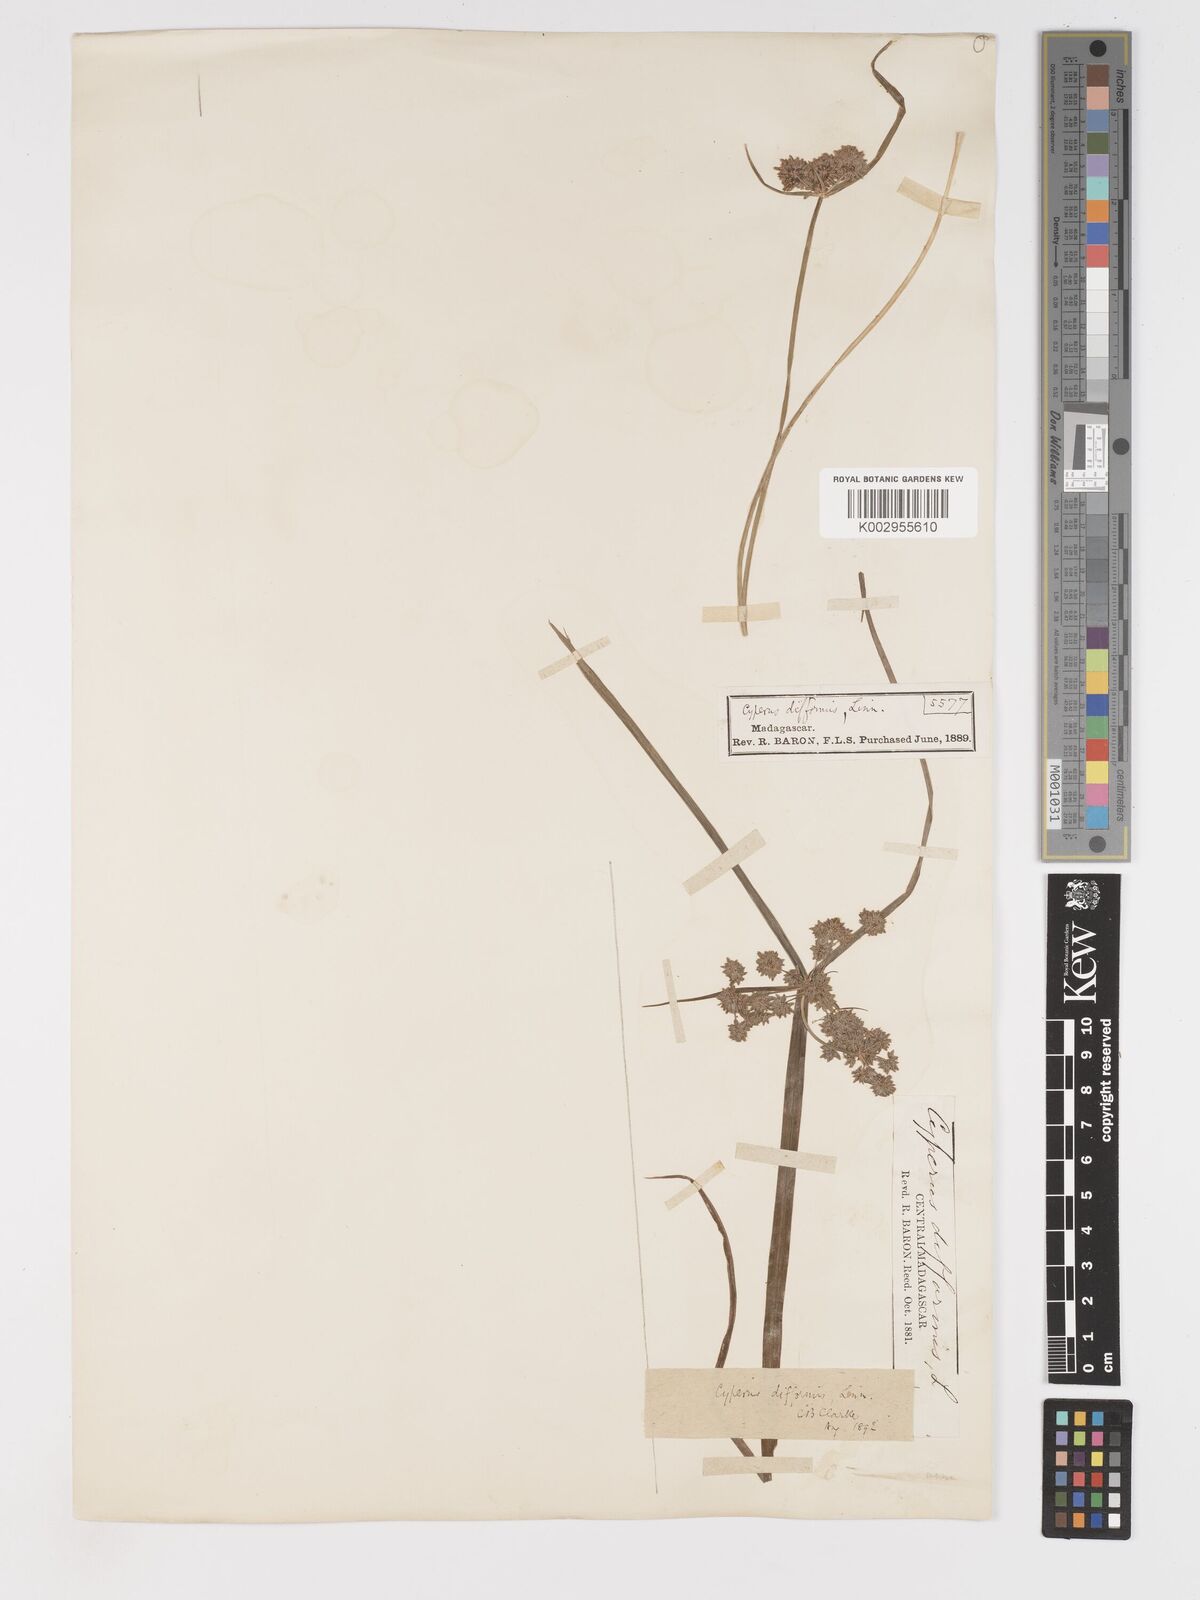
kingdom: Plantae
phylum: Tracheophyta
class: Liliopsida
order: Poales
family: Cyperaceae
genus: Cyperus
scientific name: Cyperus difformis
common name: Variable flatsedge
